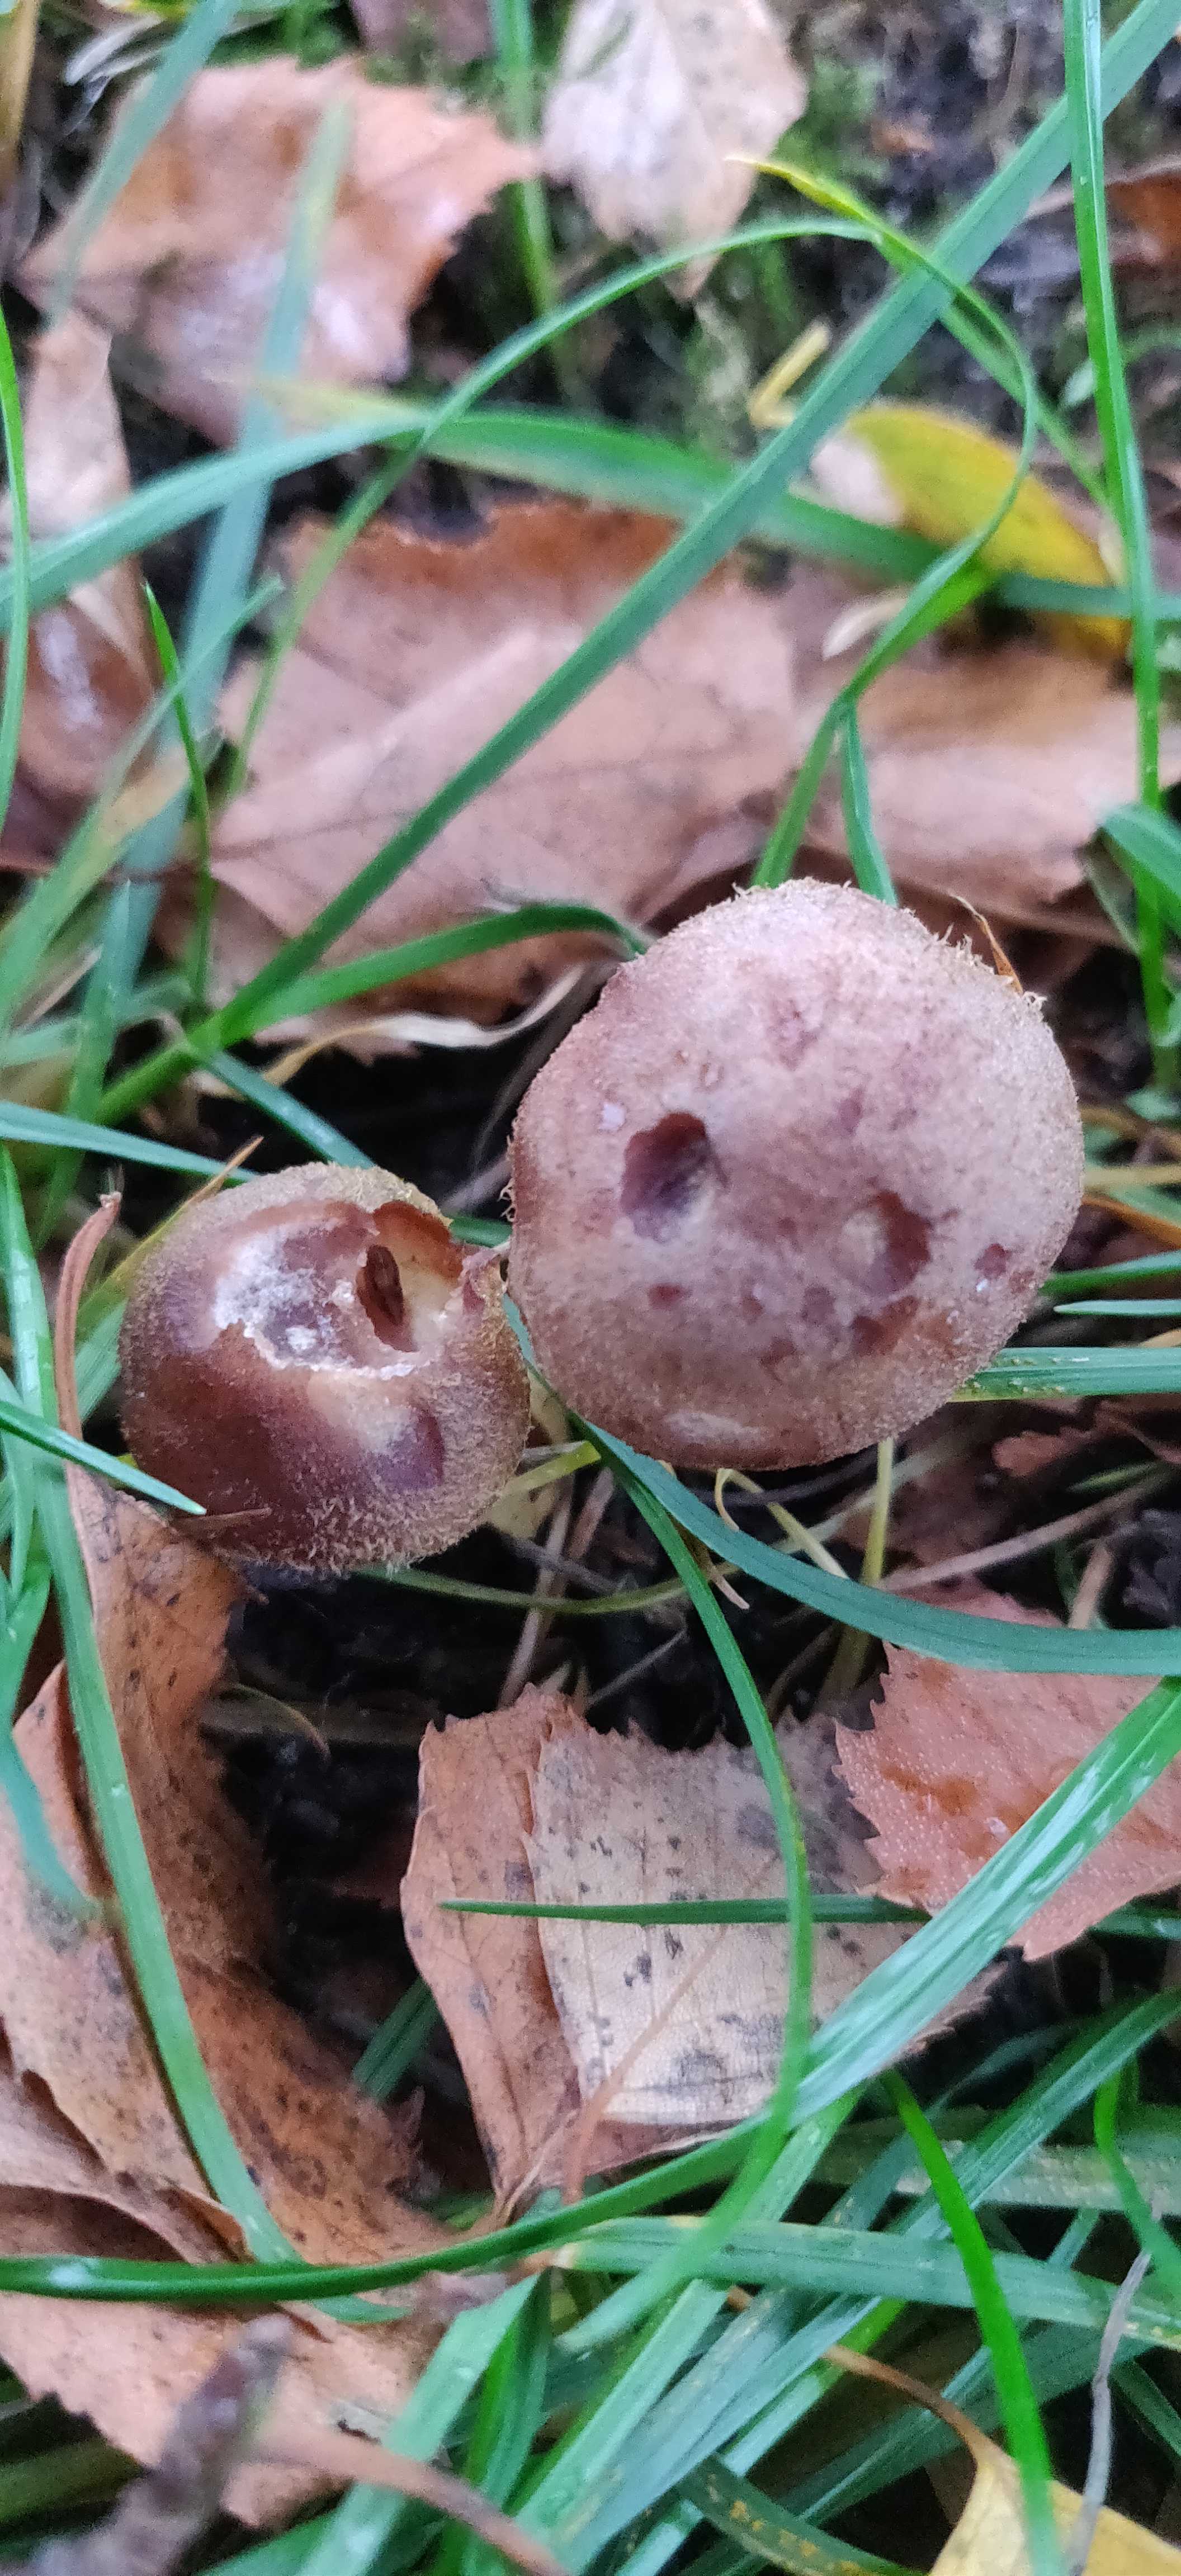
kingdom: Fungi
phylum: Basidiomycota
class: Agaricomycetes
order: Agaricales
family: Physalacriaceae
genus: Armillaria
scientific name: Armillaria lutea
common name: køllestokket honningsvamp
